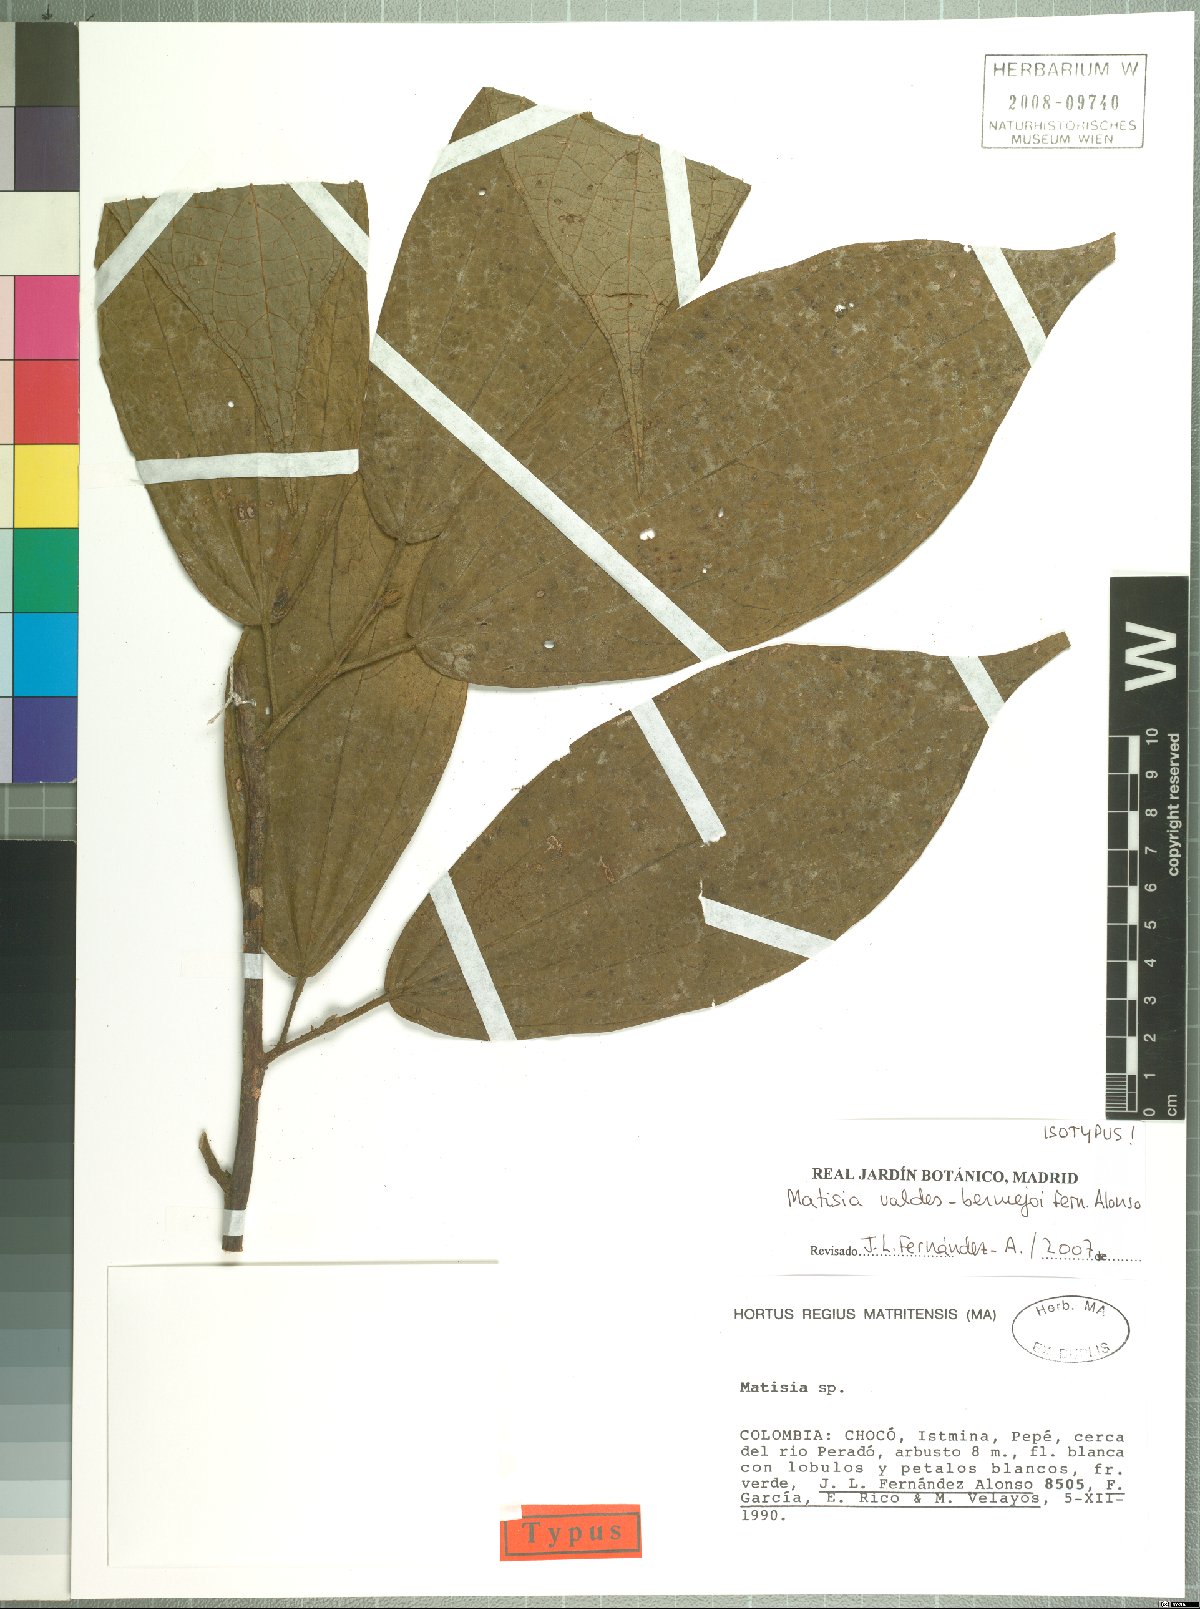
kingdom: Plantae
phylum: Tracheophyta
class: Magnoliopsida
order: Malvales
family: Malvaceae
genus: Matisia
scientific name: Matisia valdes-bermejoi
